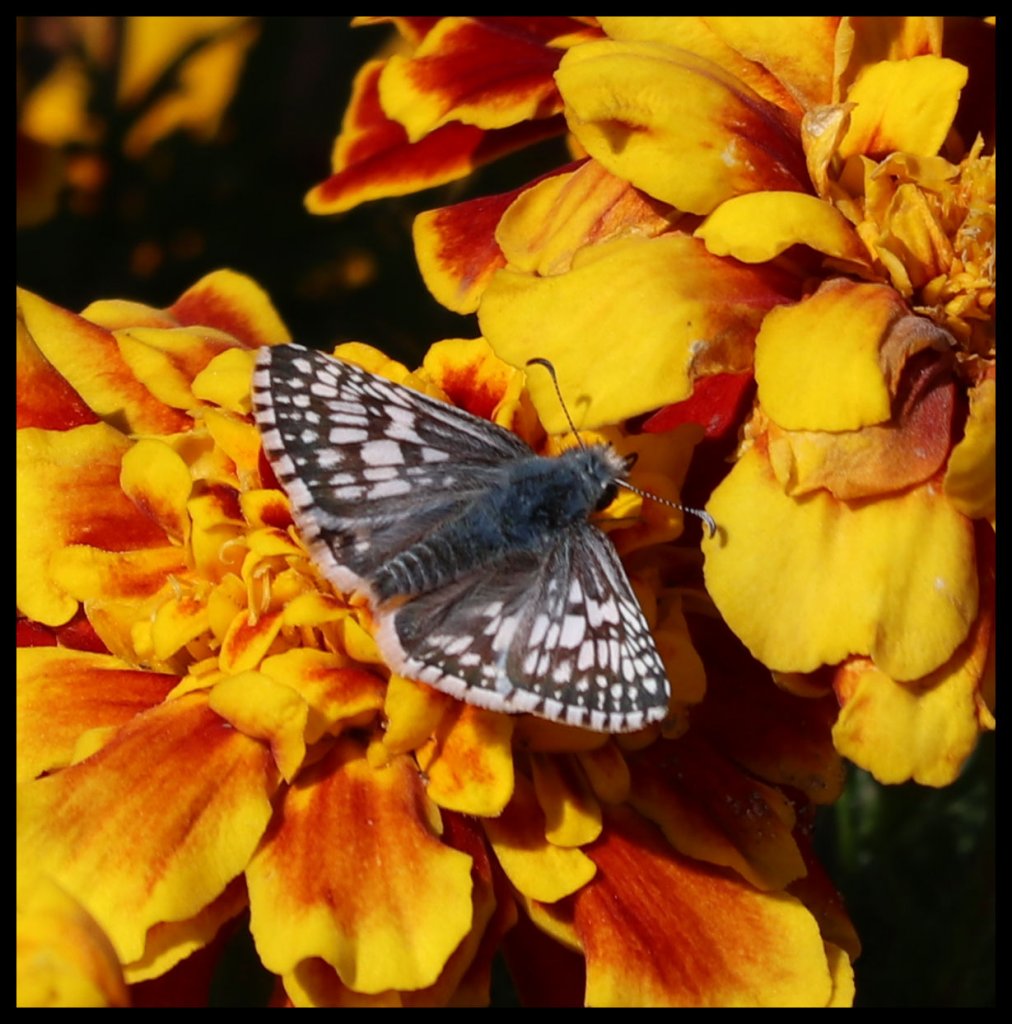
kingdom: Animalia
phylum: Arthropoda
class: Insecta
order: Lepidoptera
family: Hesperiidae
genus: Pyrgus
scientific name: Pyrgus communis
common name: Common Checkered-Skipper
